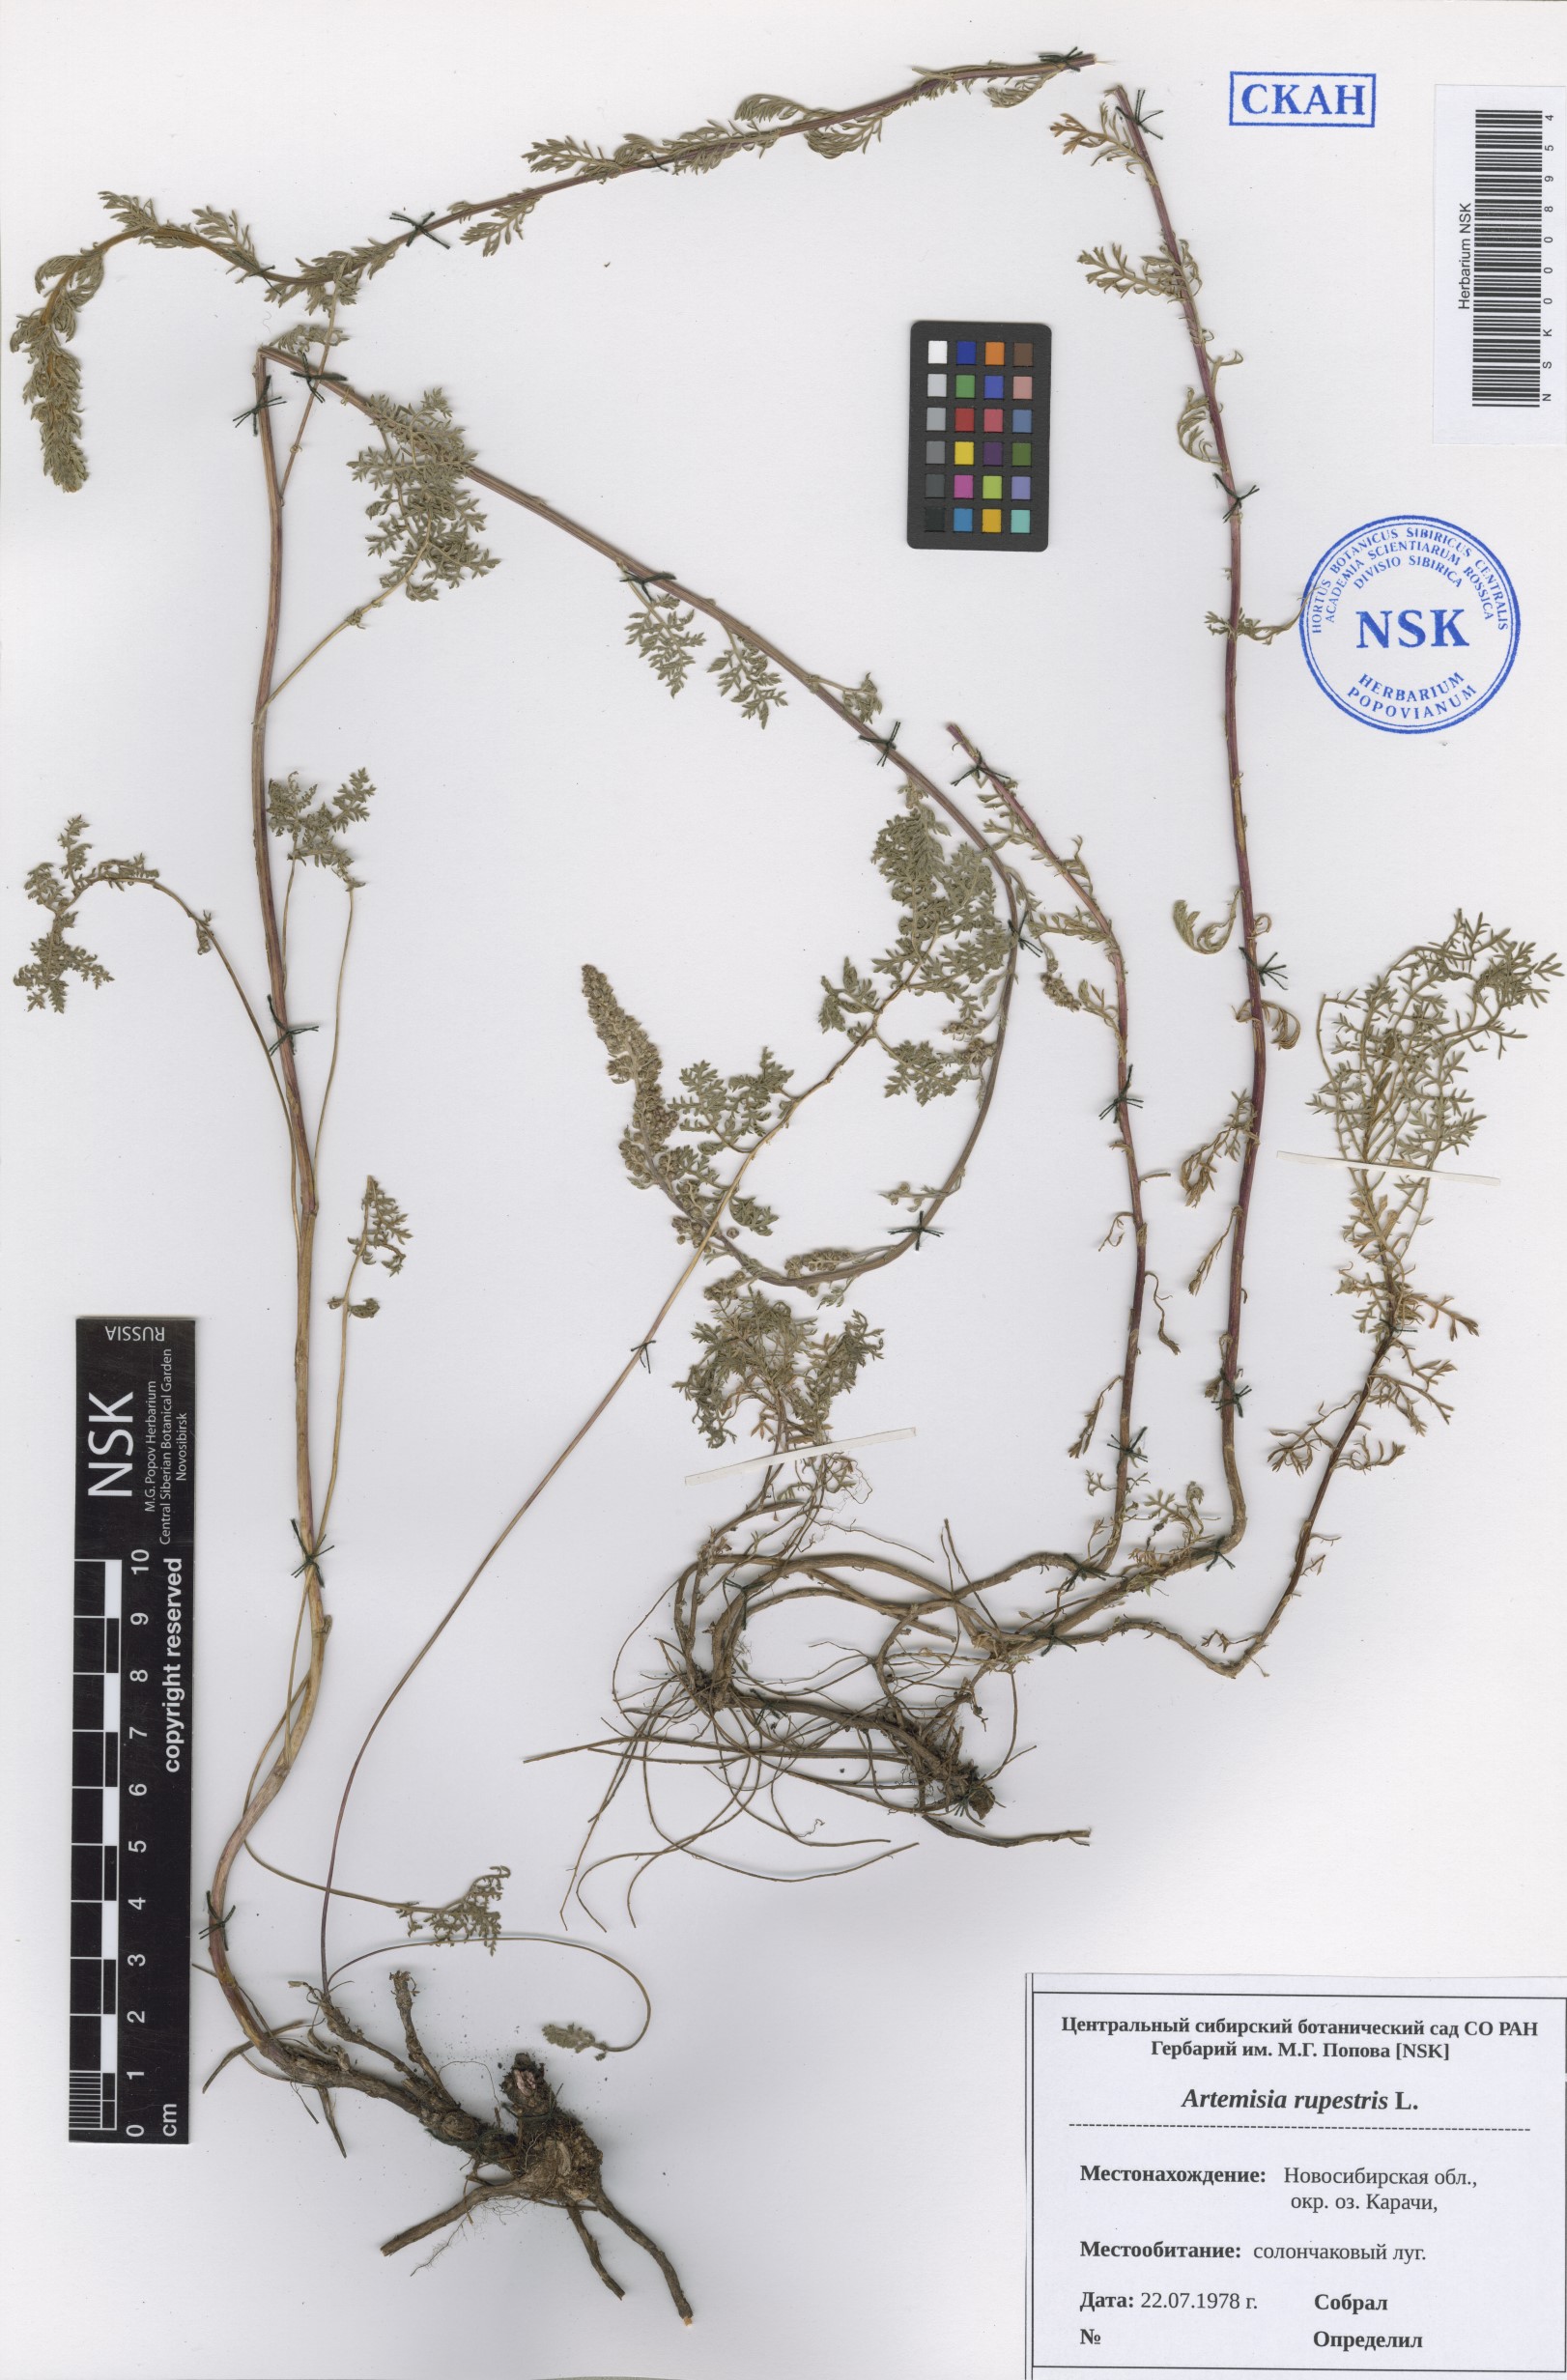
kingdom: Plantae
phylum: Tracheophyta
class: Magnoliopsida
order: Asterales
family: Asteraceae
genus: Artemisia
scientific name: Artemisia rupestris
